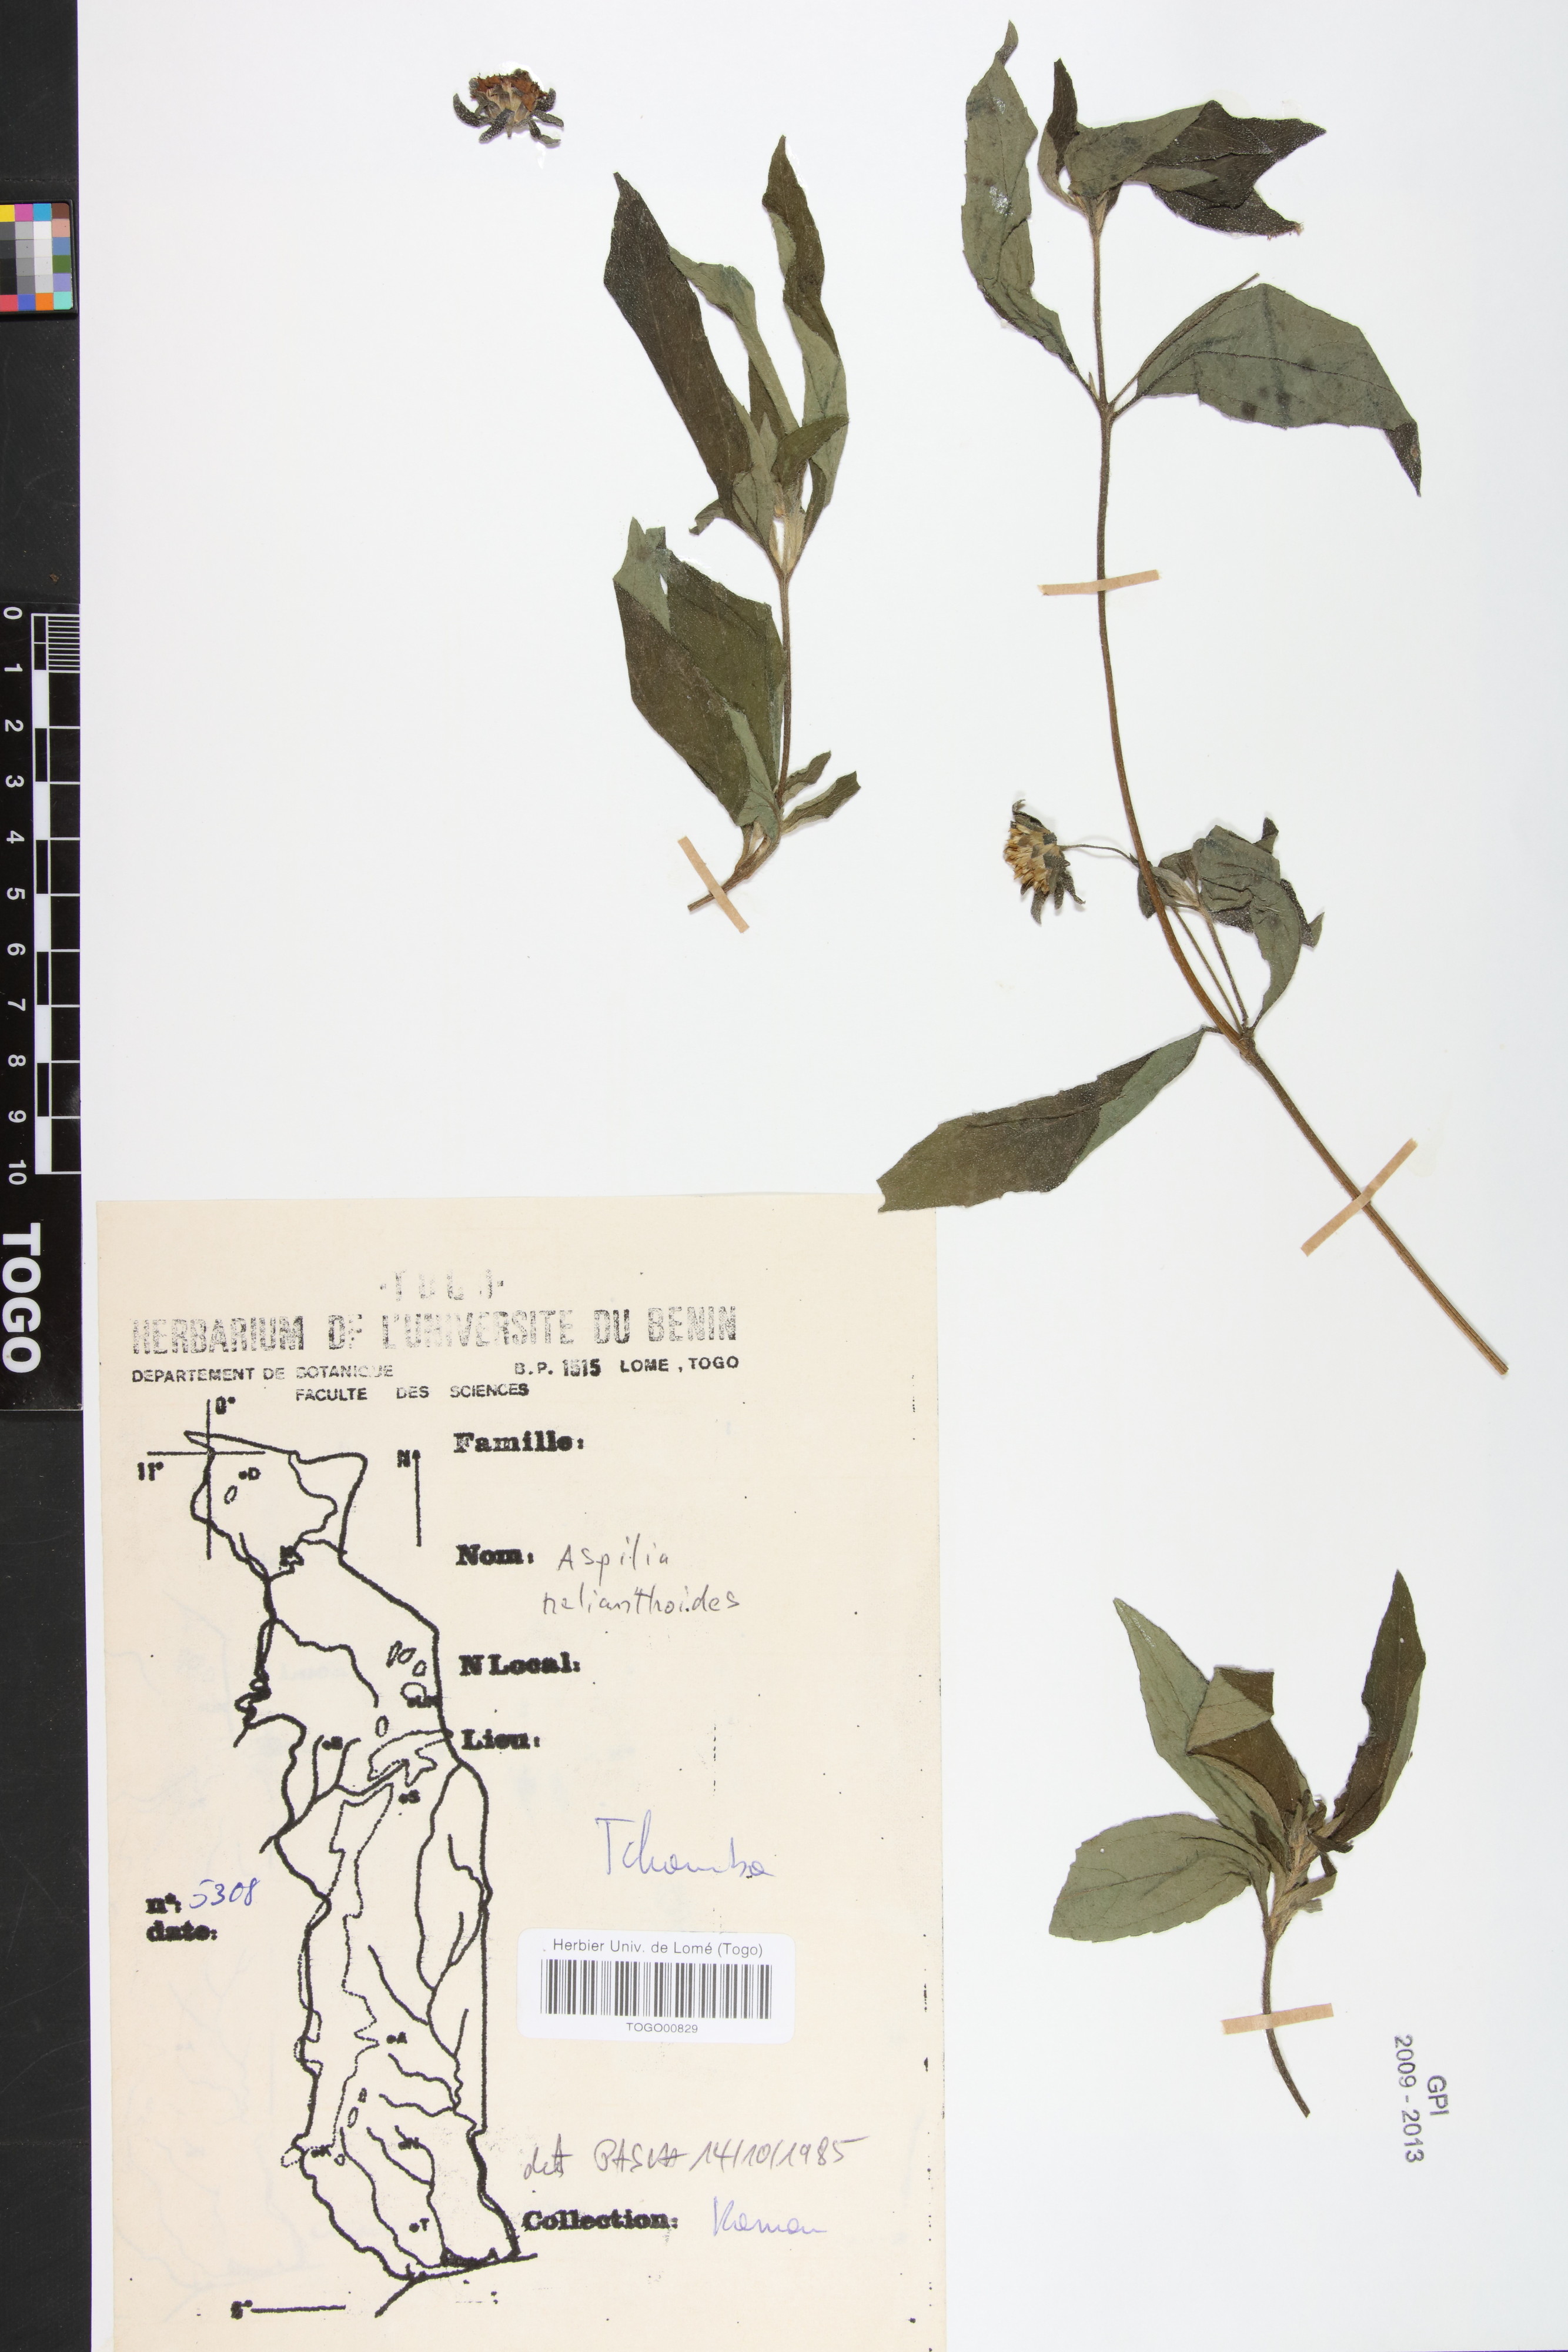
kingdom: Plantae
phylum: Tracheophyta
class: Magnoliopsida
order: Asterales
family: Asteraceae
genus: Aspilia
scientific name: Aspilia helianthoides
